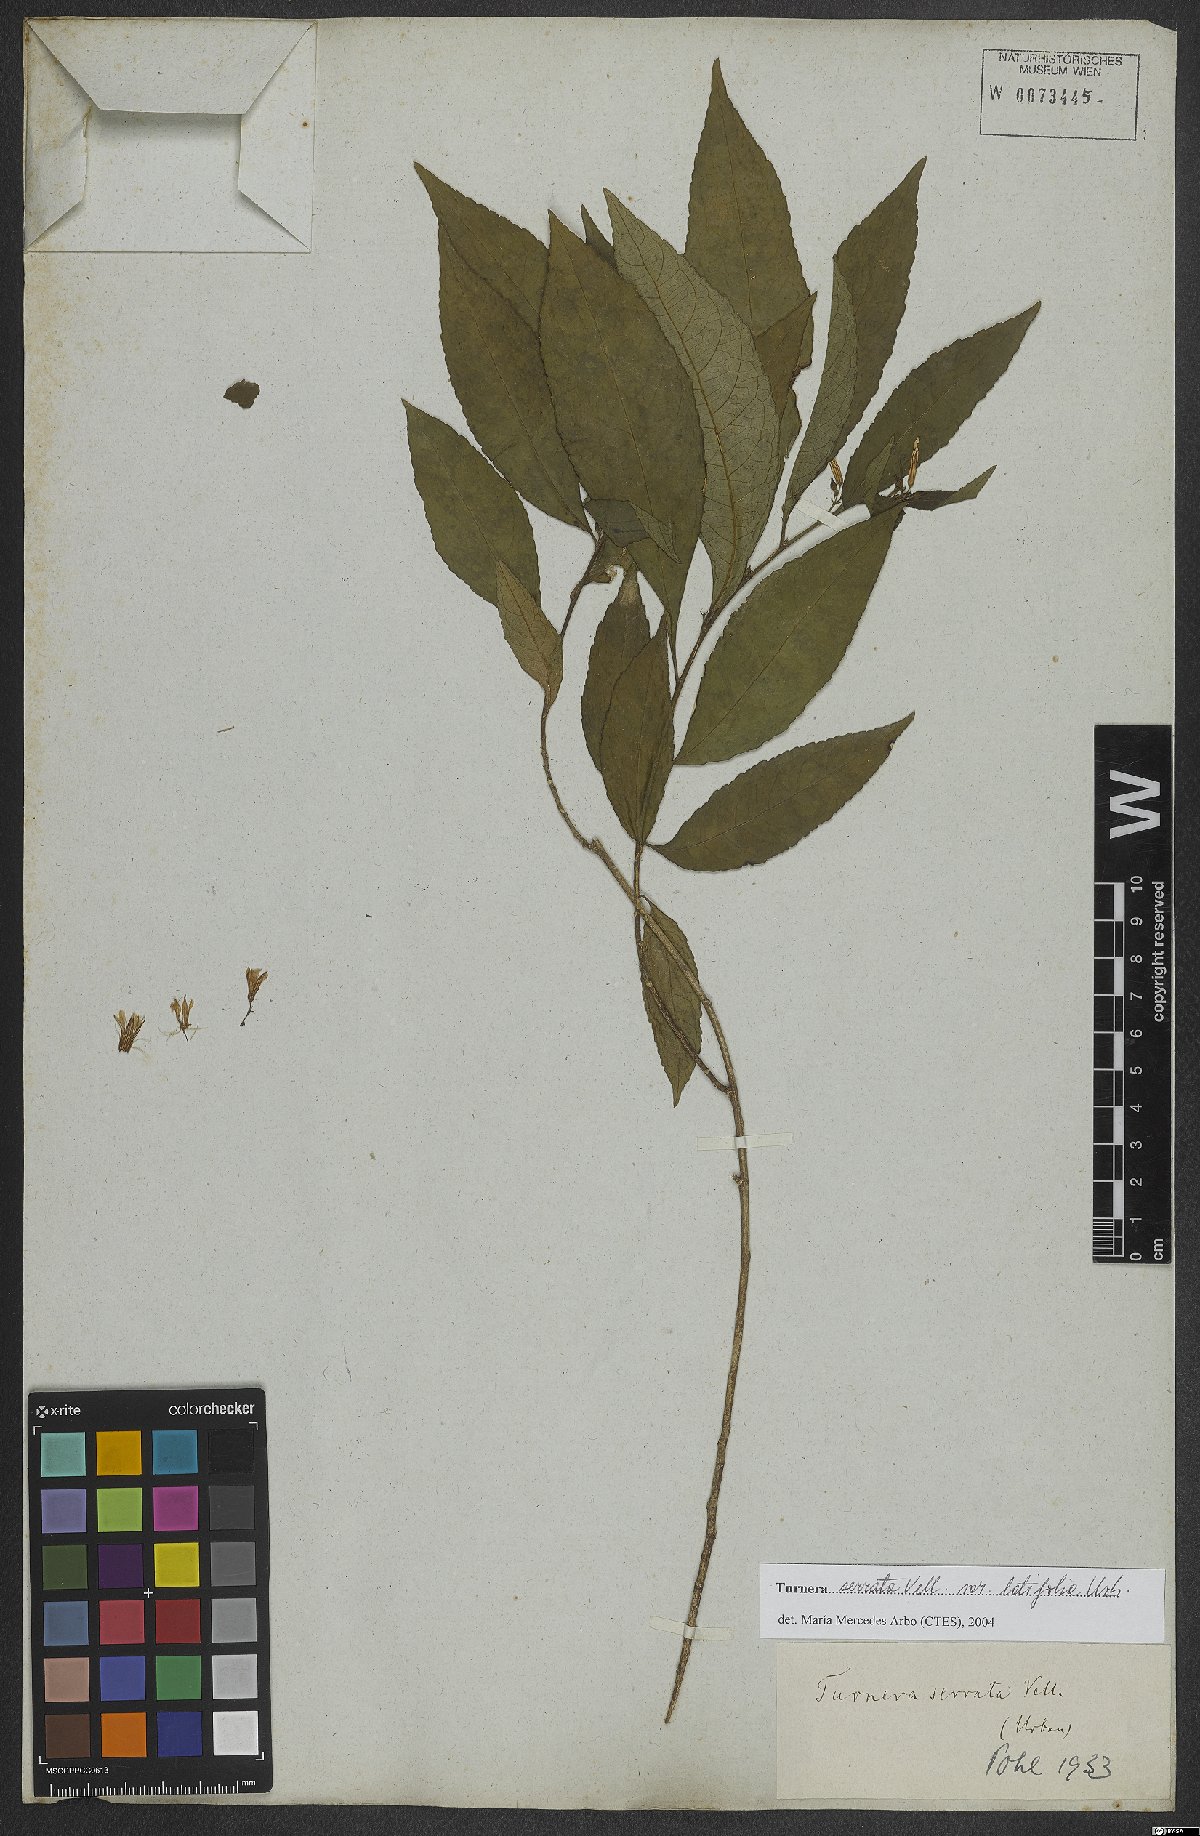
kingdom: Plantae
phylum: Tracheophyta
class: Magnoliopsida
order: Malpighiales
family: Turneraceae
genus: Turnera
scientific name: Turnera serrata
